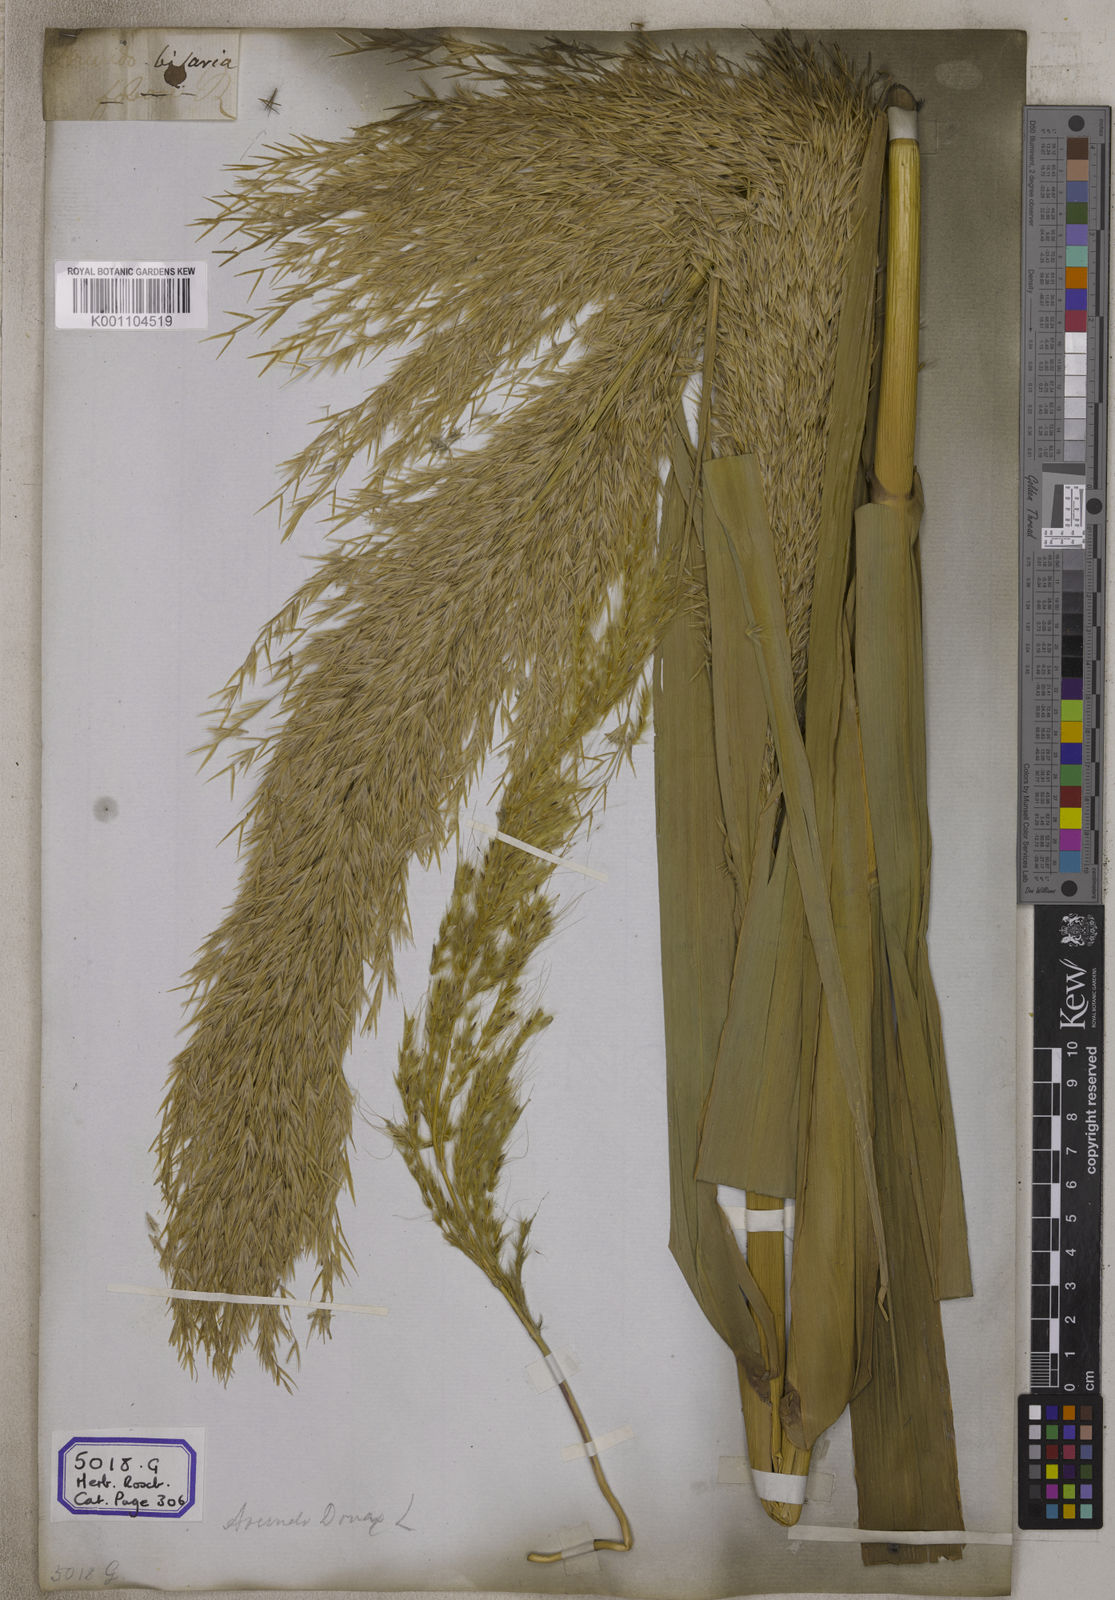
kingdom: Plantae
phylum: Tracheophyta
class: Liliopsida
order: Poales
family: Poaceae
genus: Arundo
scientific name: Arundo
